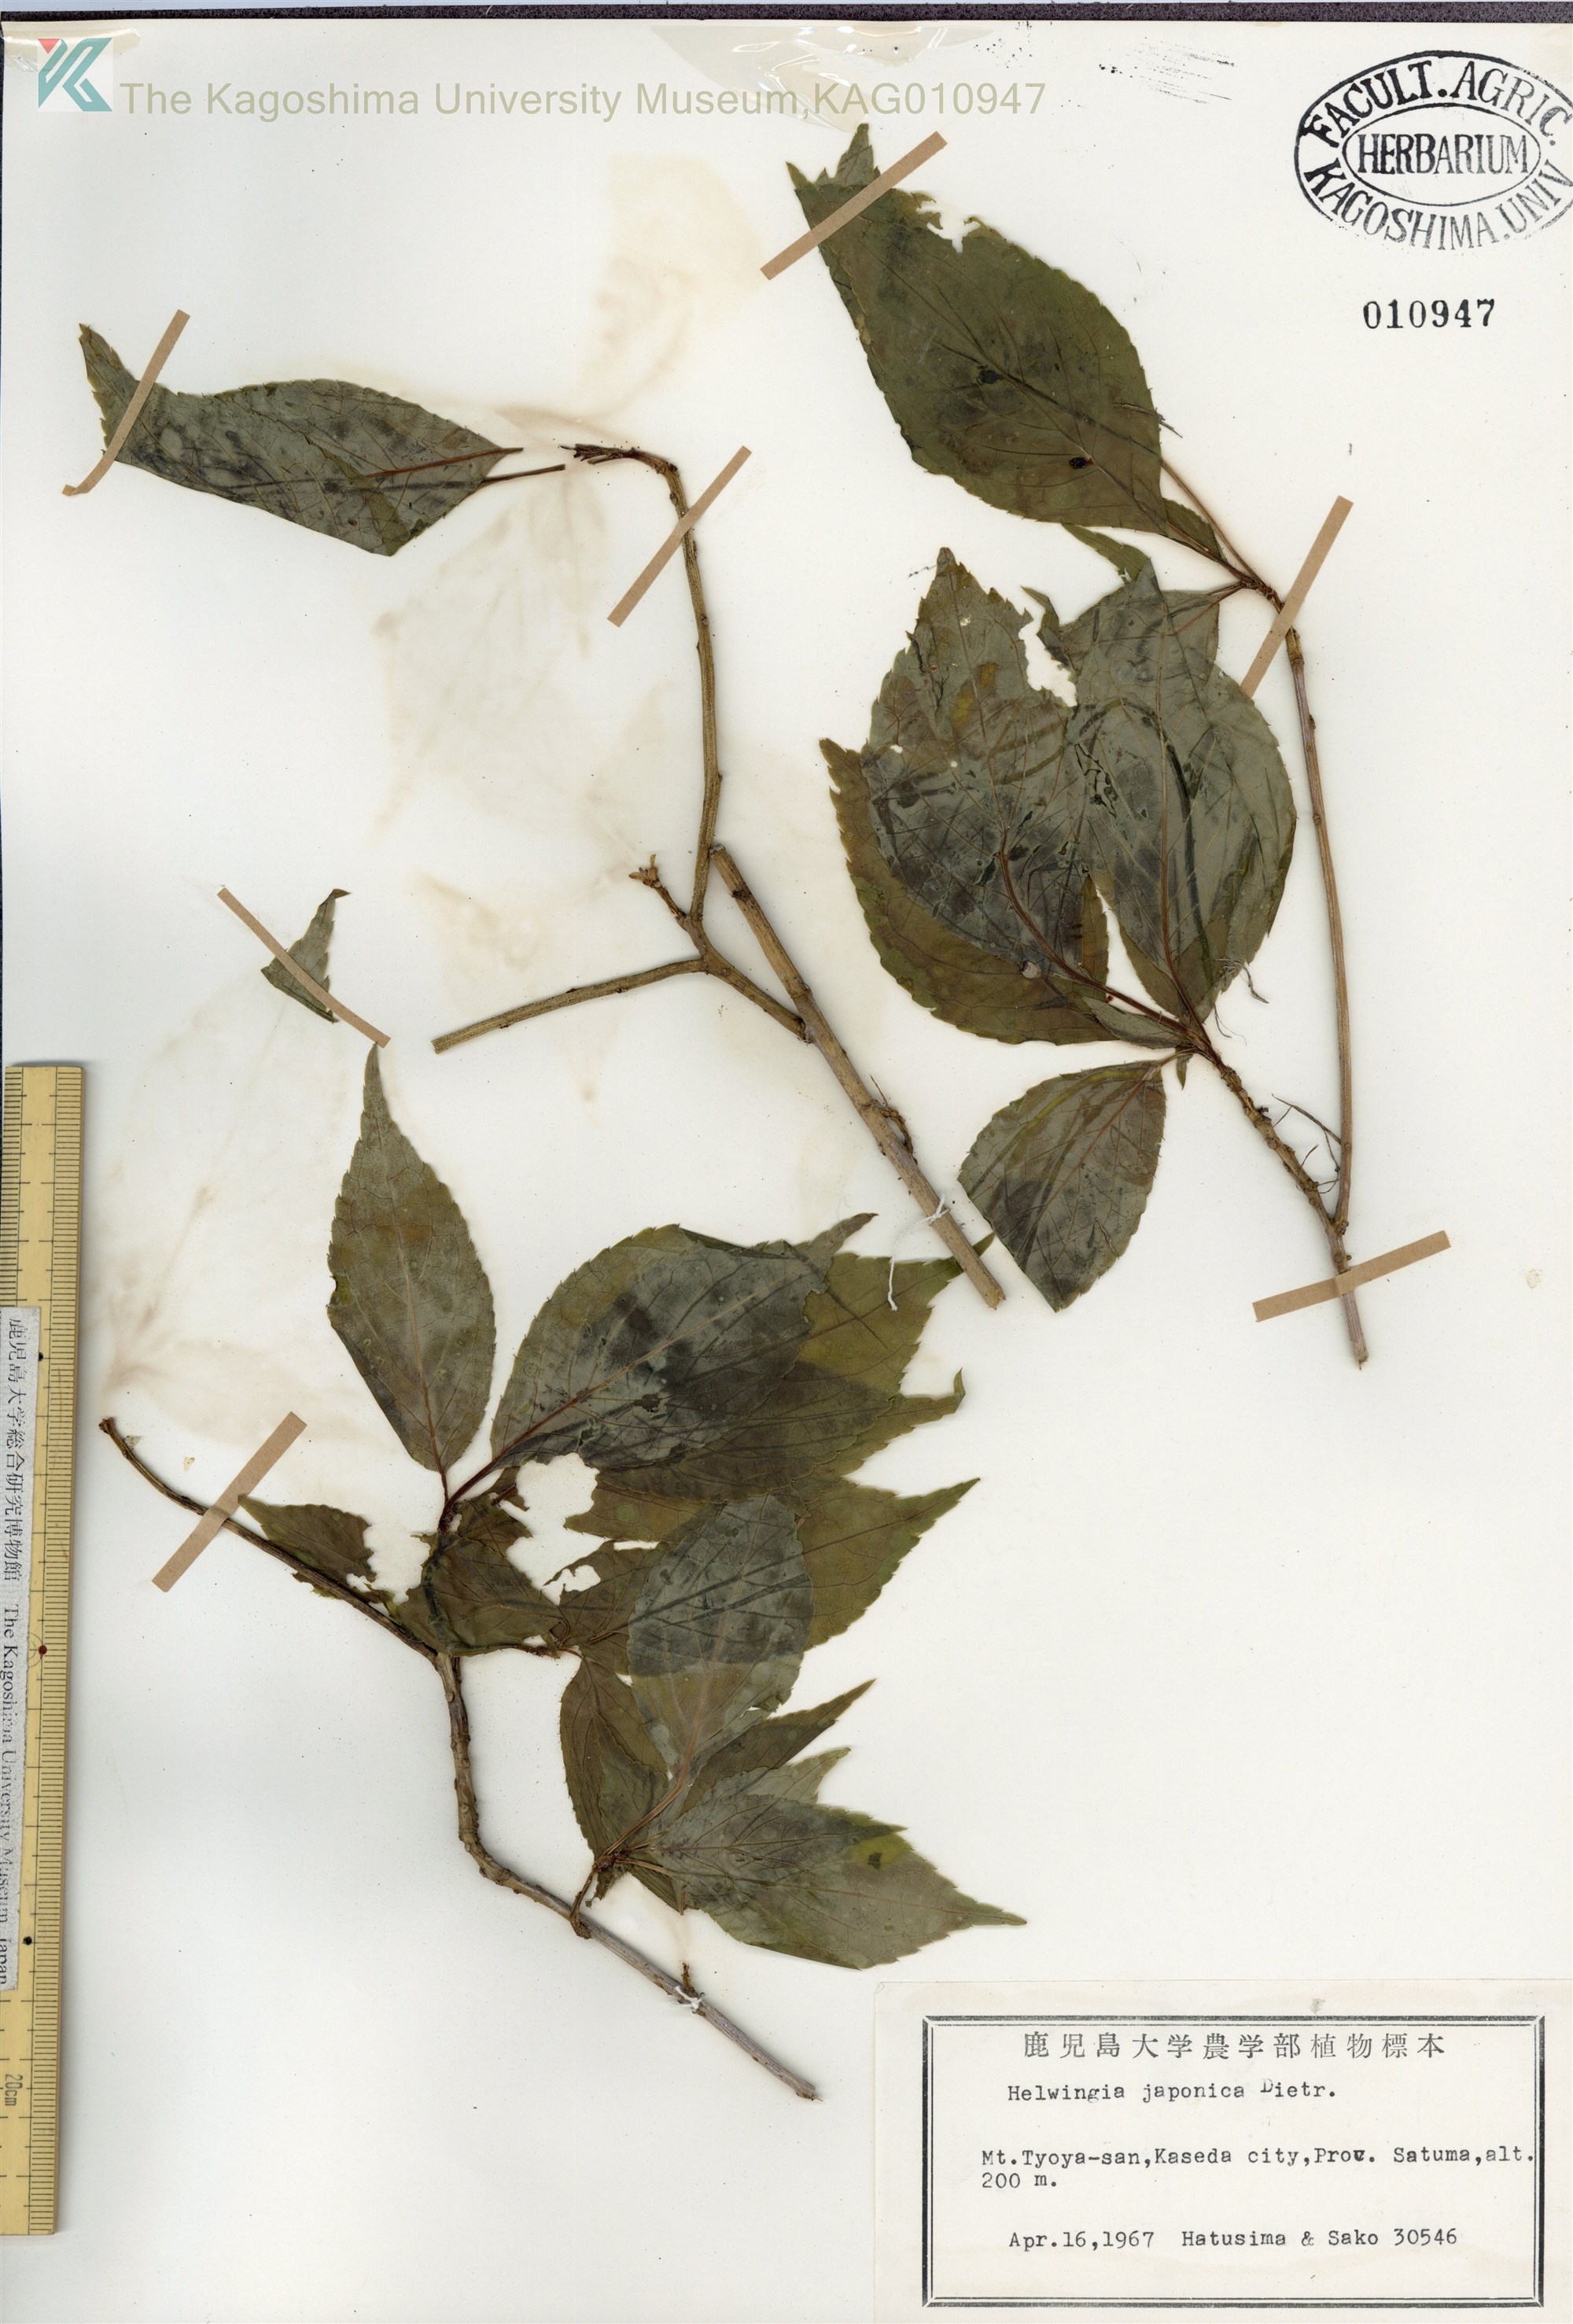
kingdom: Plantae
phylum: Tracheophyta
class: Magnoliopsida
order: Aquifoliales
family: Helwingiaceae
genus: Helwingia
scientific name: Helwingia japonica
